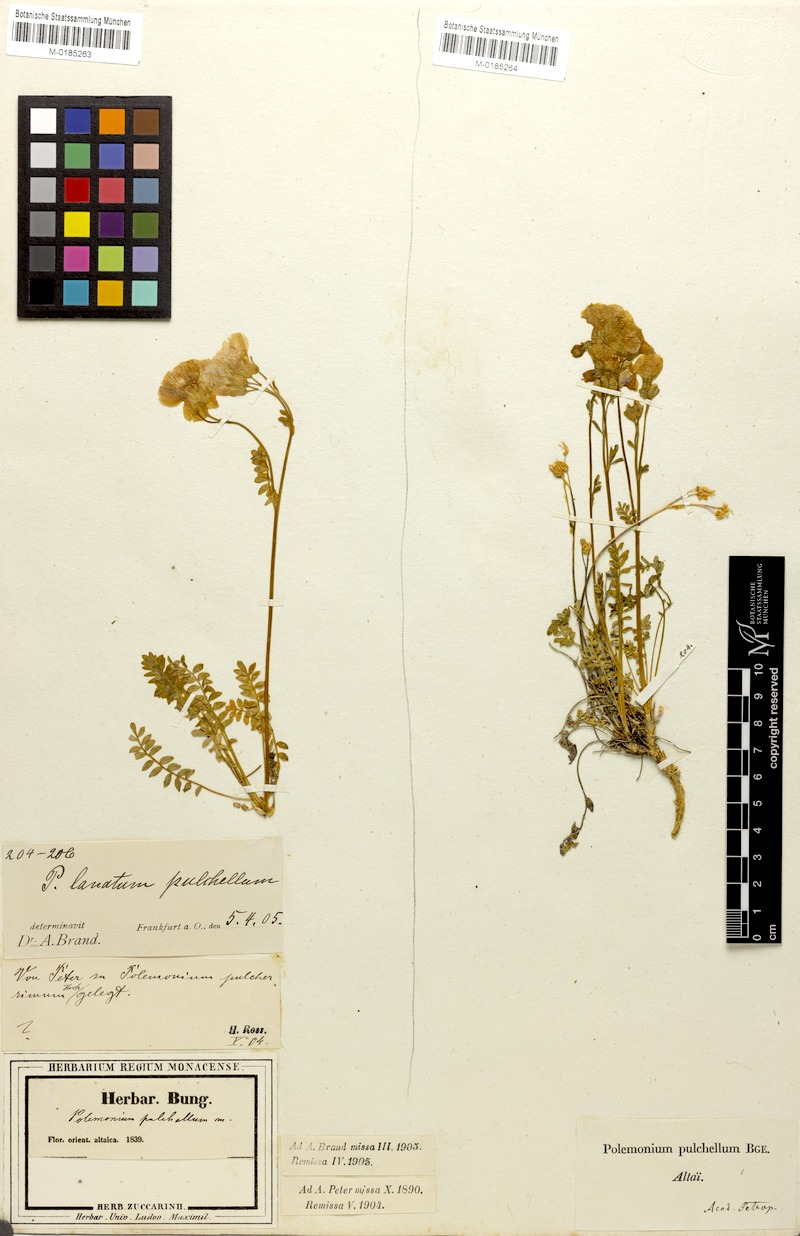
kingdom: Plantae
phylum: Tracheophyta
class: Magnoliopsida
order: Ericales
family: Polemoniaceae
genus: Polemonium
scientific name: Polemonium pulchellum
